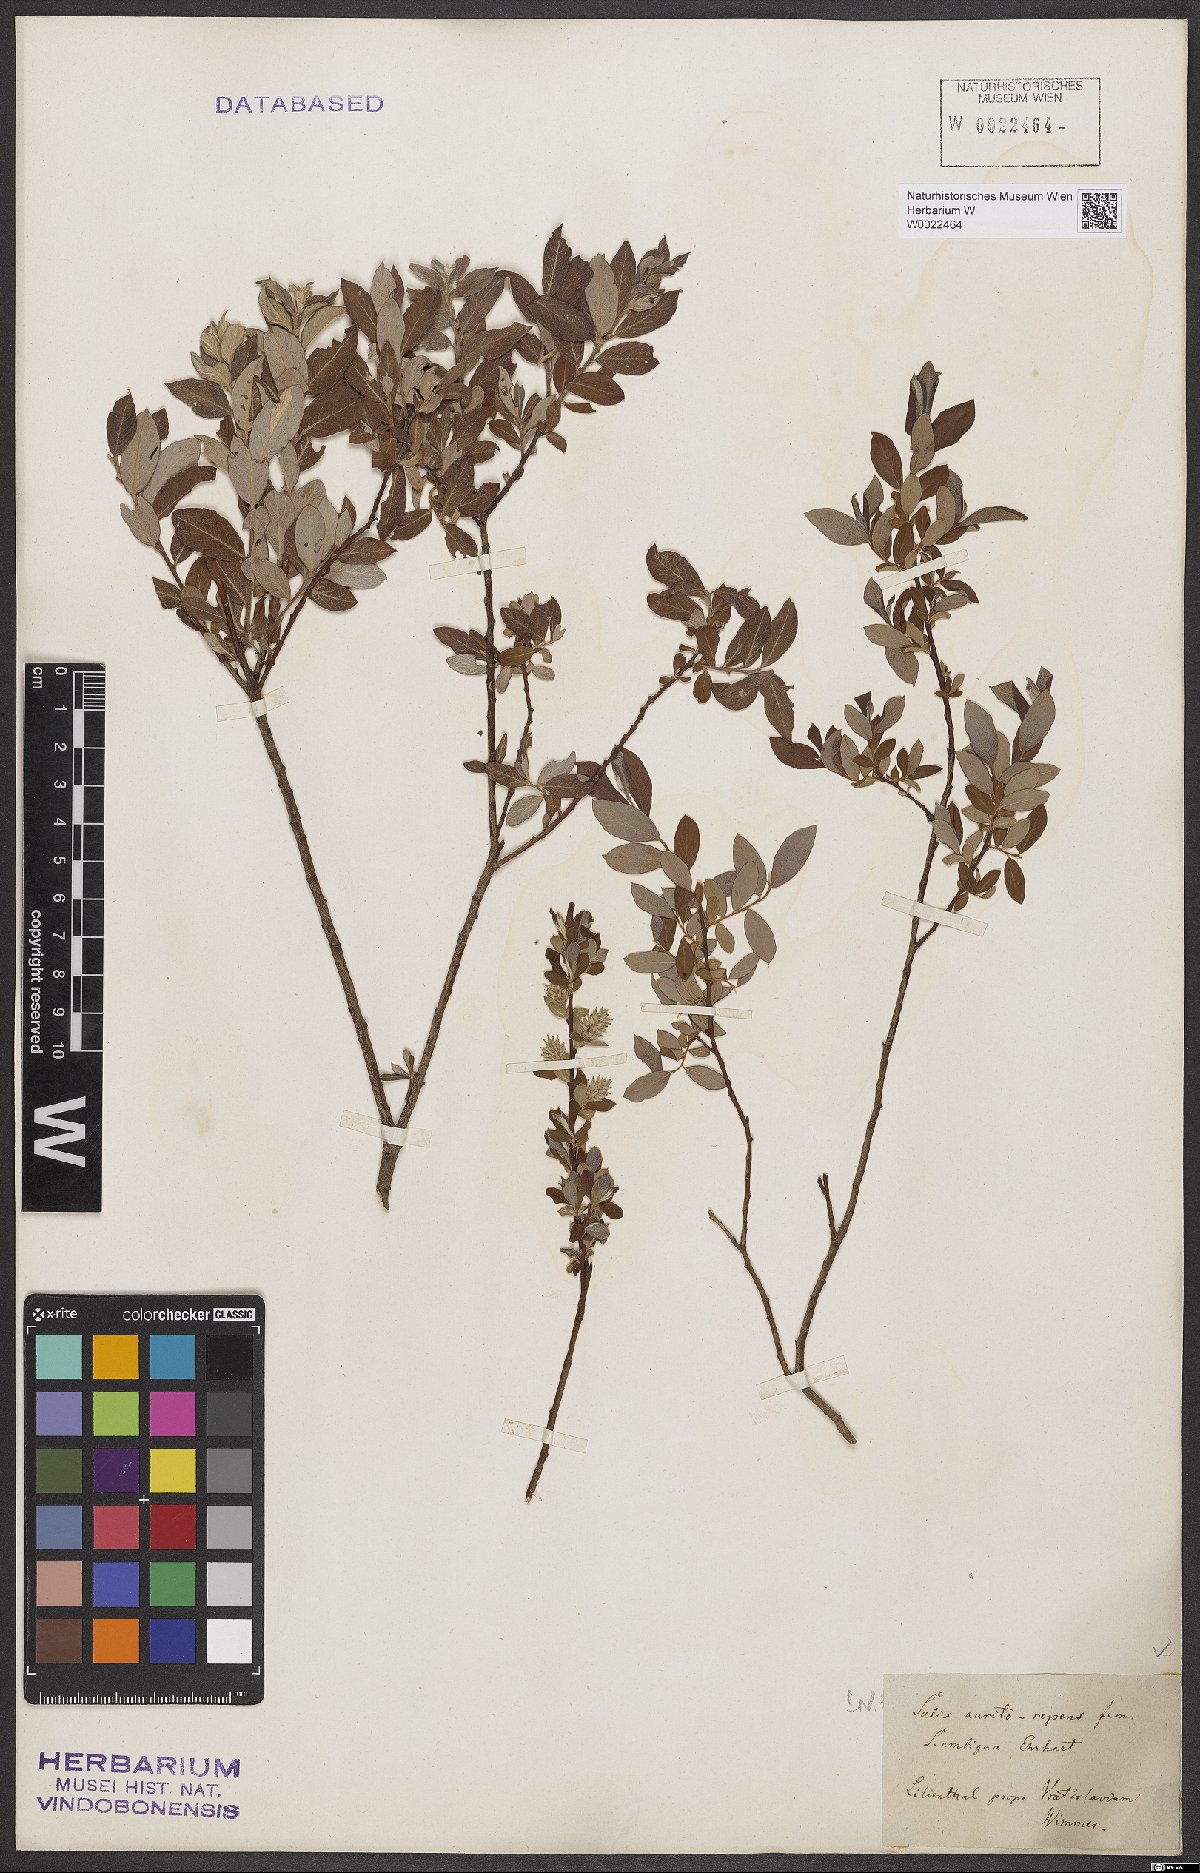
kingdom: Plantae
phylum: Tracheophyta
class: Magnoliopsida
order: Malpighiales
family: Salicaceae
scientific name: Salicaceae
